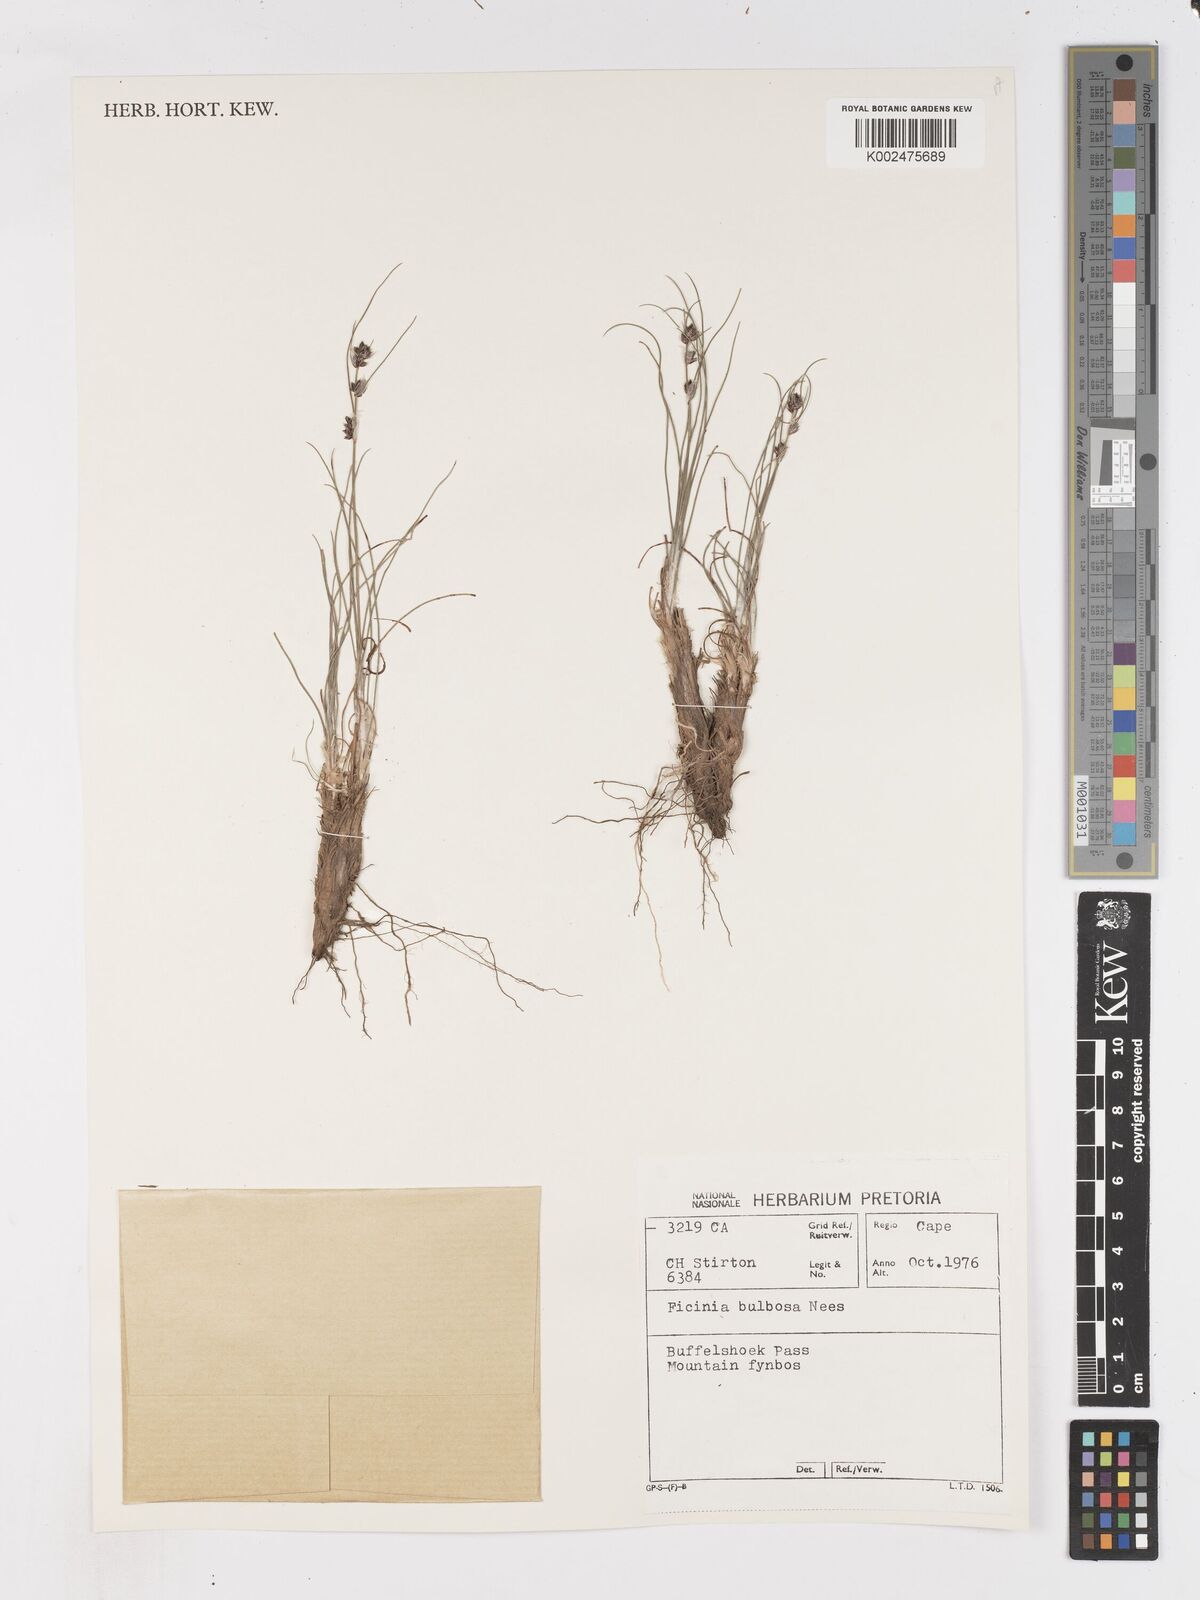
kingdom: Plantae
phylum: Tracheophyta
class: Liliopsida
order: Poales
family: Cyperaceae
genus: Ficinia
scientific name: Ficinia bulbosa
